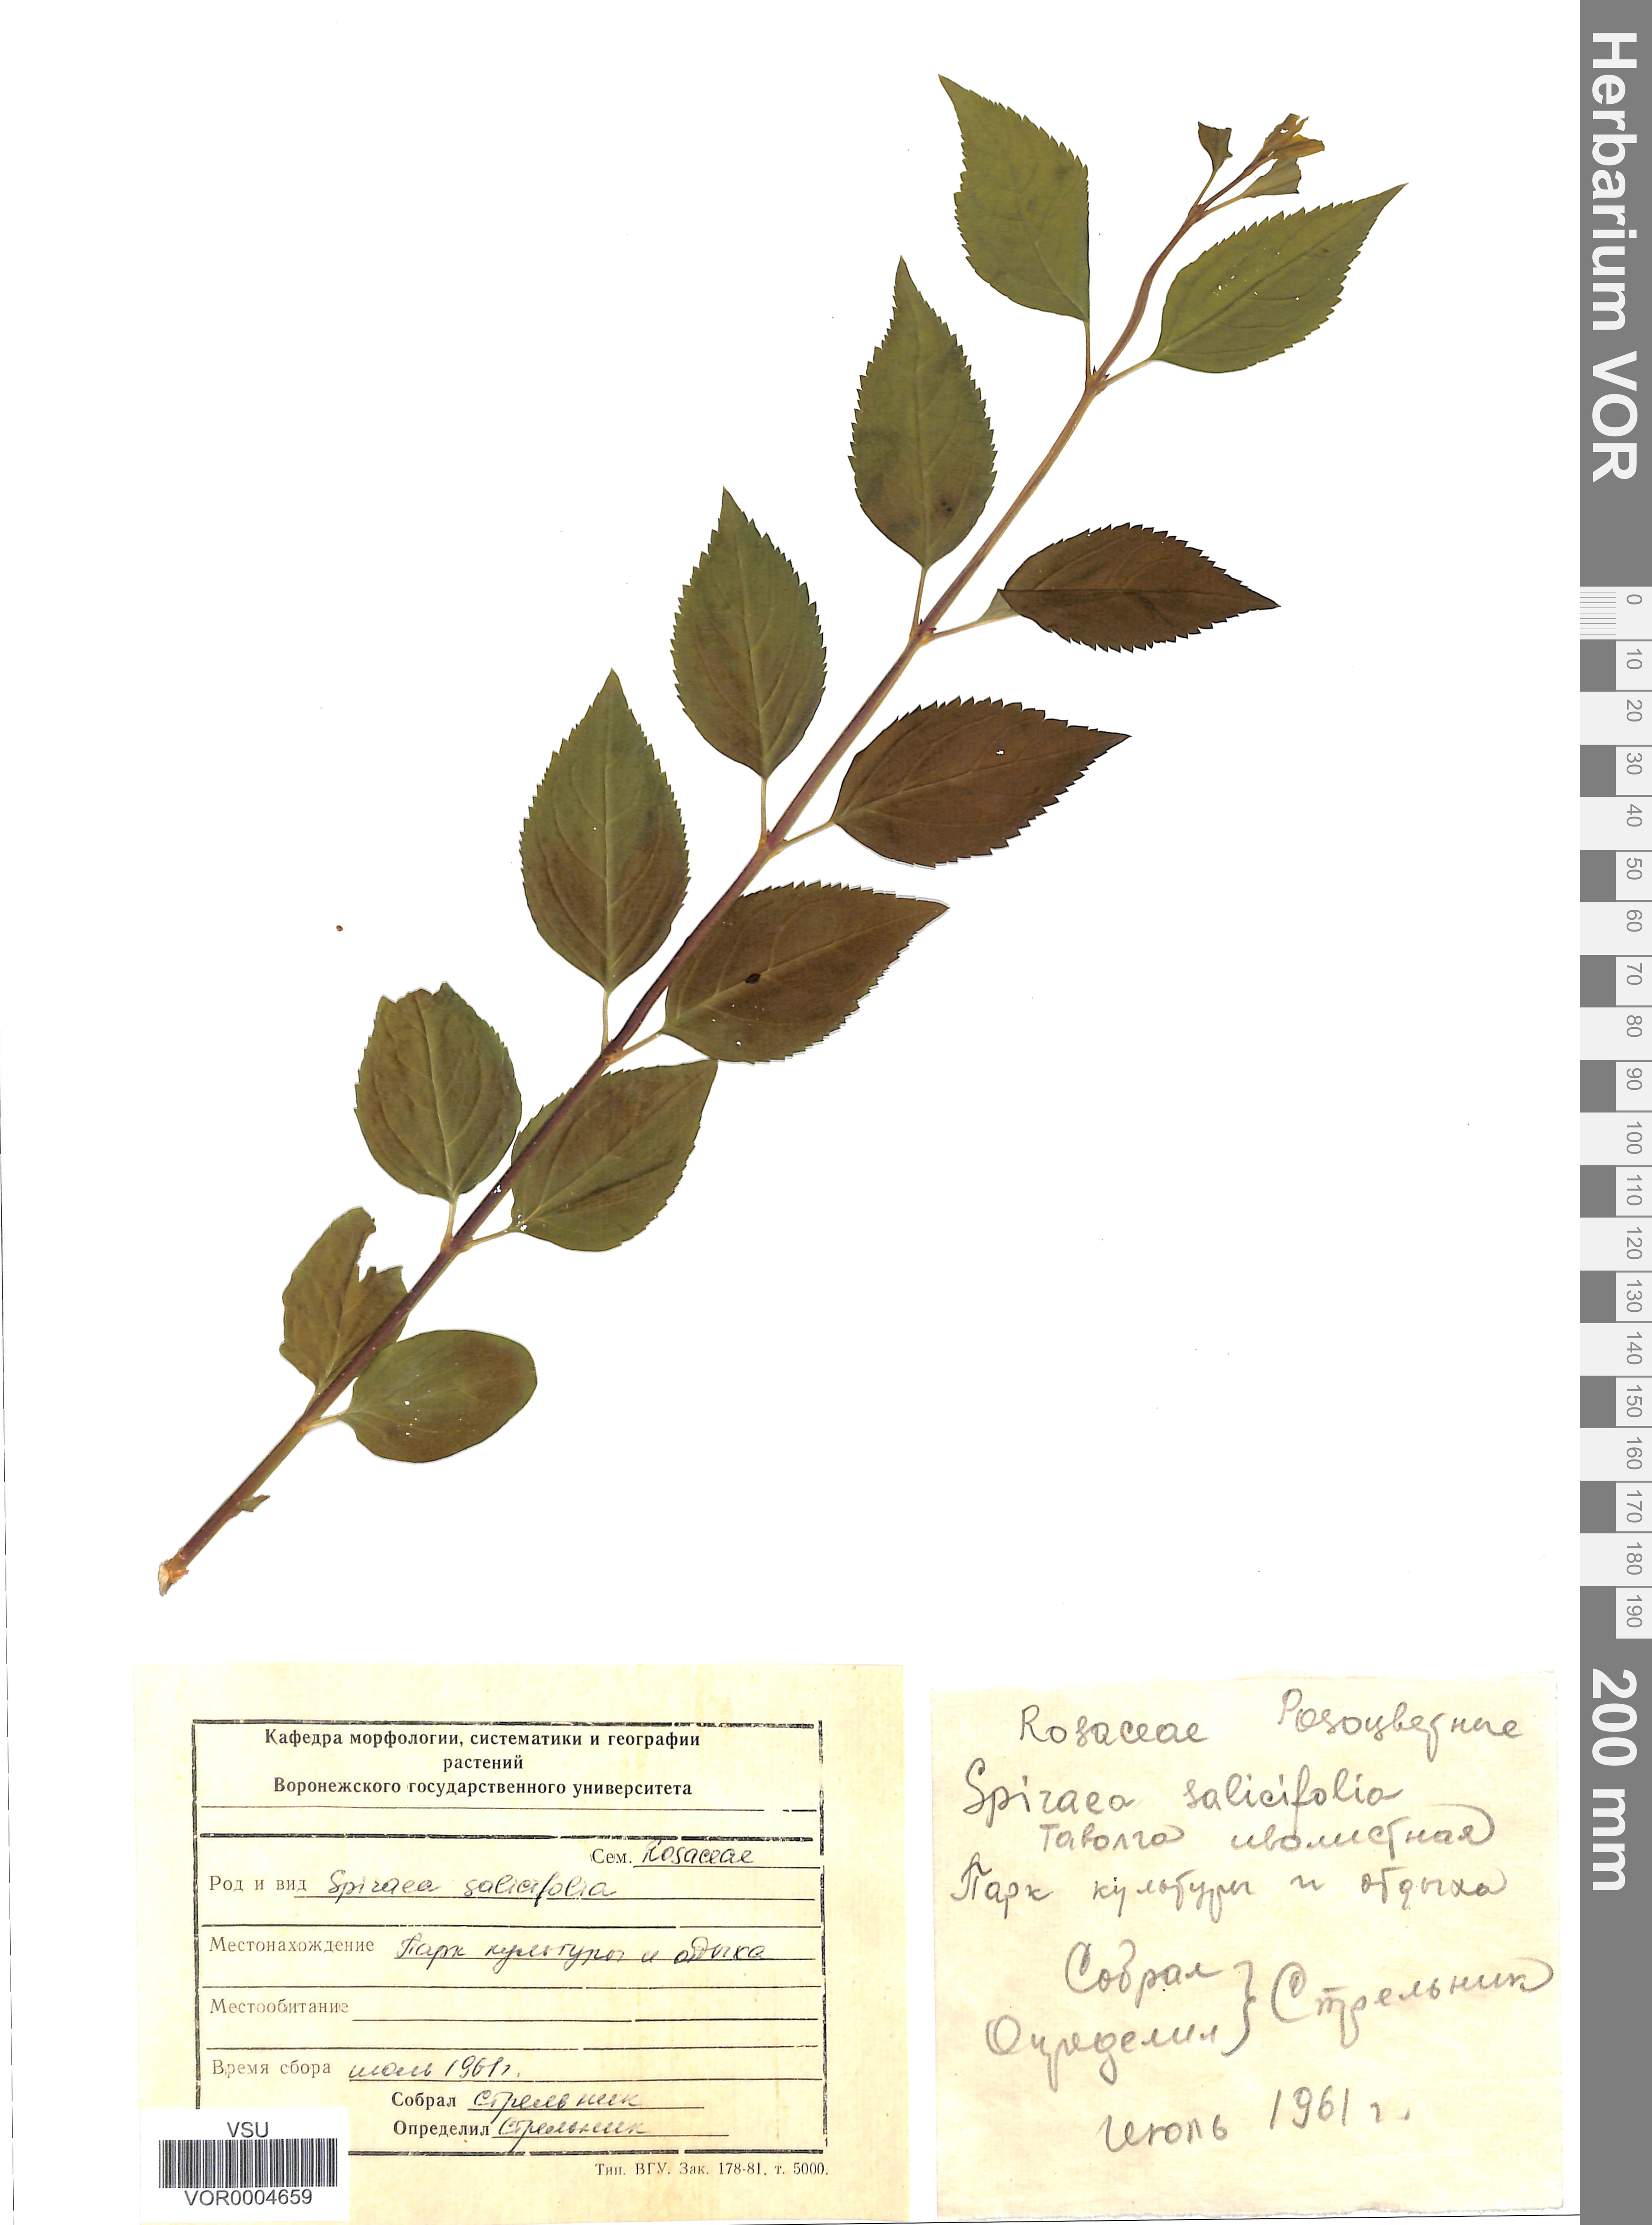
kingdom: Plantae
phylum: Tracheophyta
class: Magnoliopsida
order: Rosales
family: Rosaceae
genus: Spiraea
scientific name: Spiraea salicifolia
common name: Bridewort
